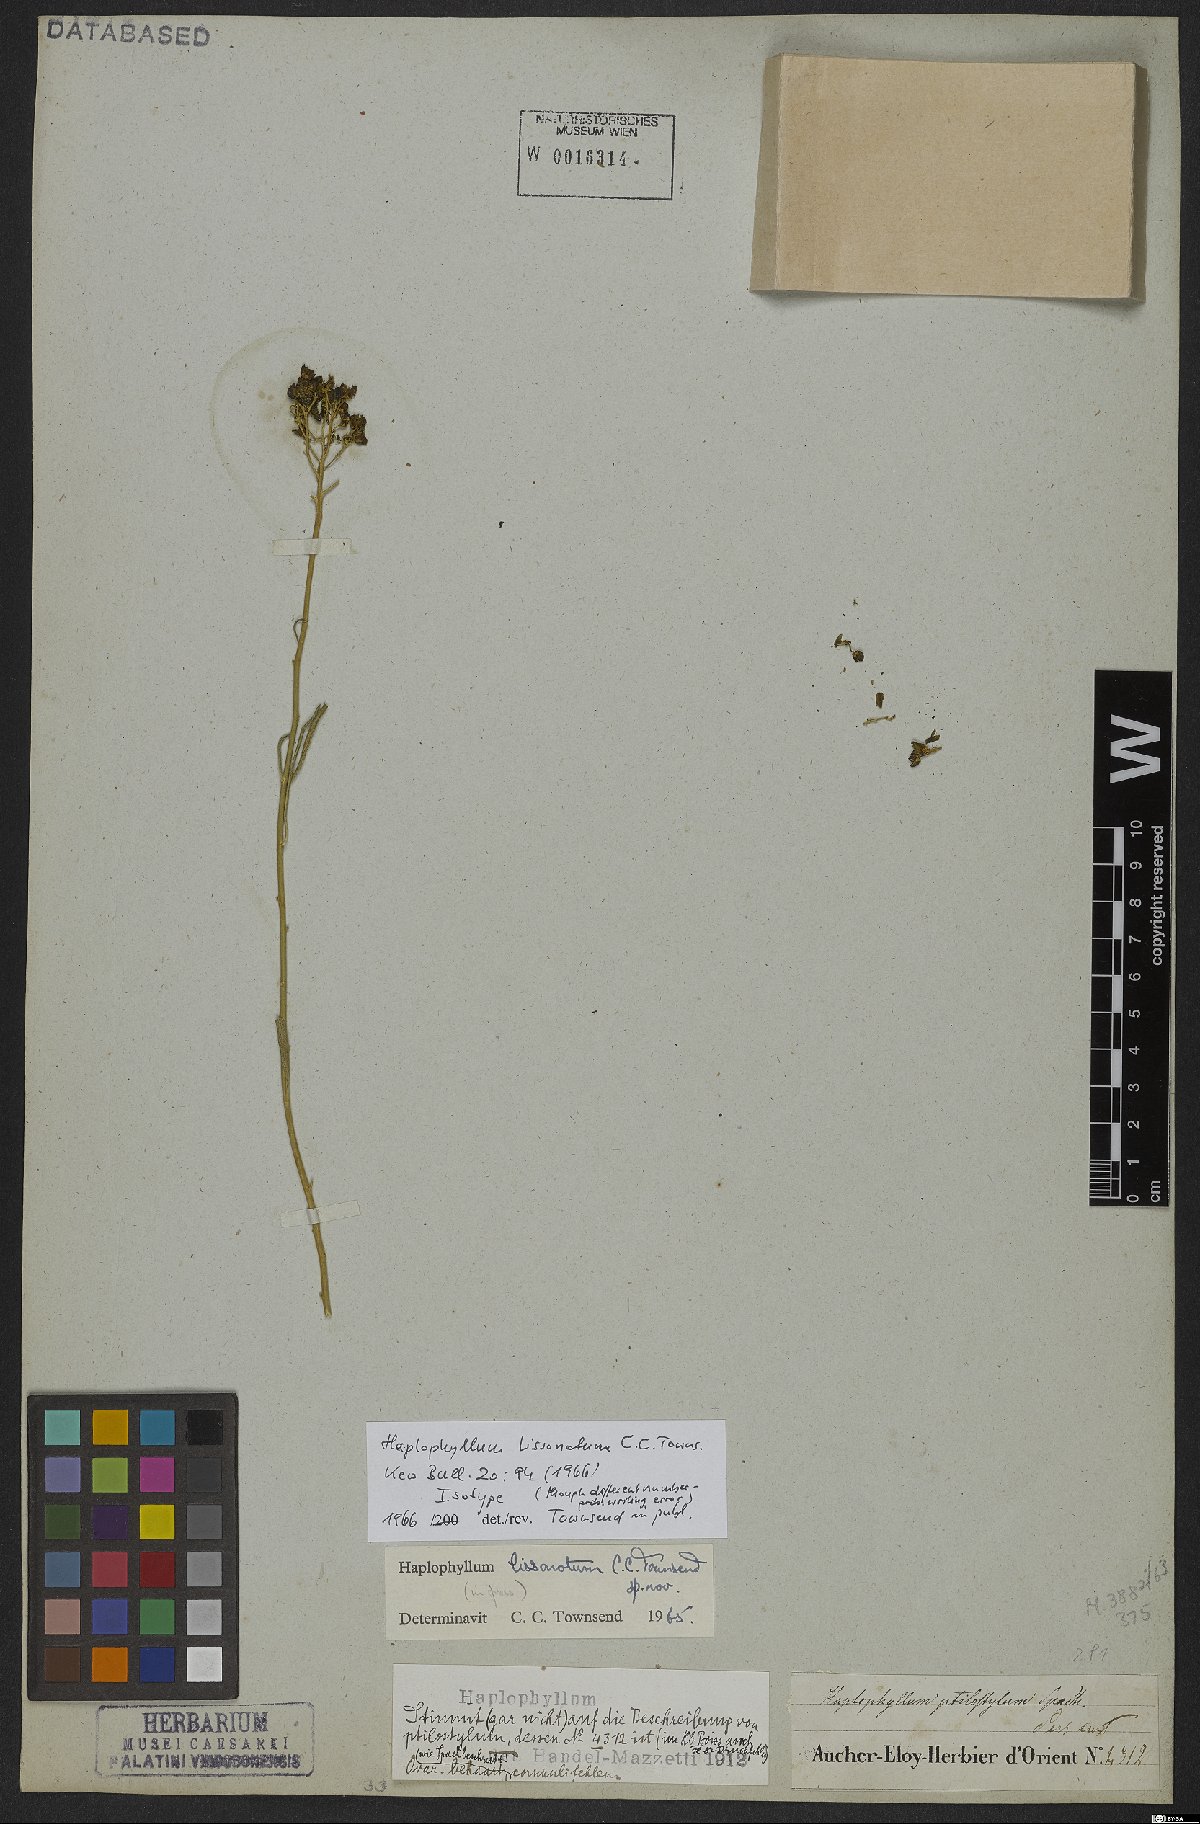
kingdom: Plantae
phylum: Tracheophyta
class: Magnoliopsida
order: Sapindales
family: Rutaceae
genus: Haplophyllum
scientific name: Haplophyllum lissonotum
